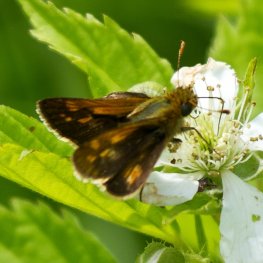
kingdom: Animalia
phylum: Arthropoda
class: Insecta
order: Lepidoptera
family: Hesperiidae
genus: Polites
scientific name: Polites coras
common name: Peck's Skipper
